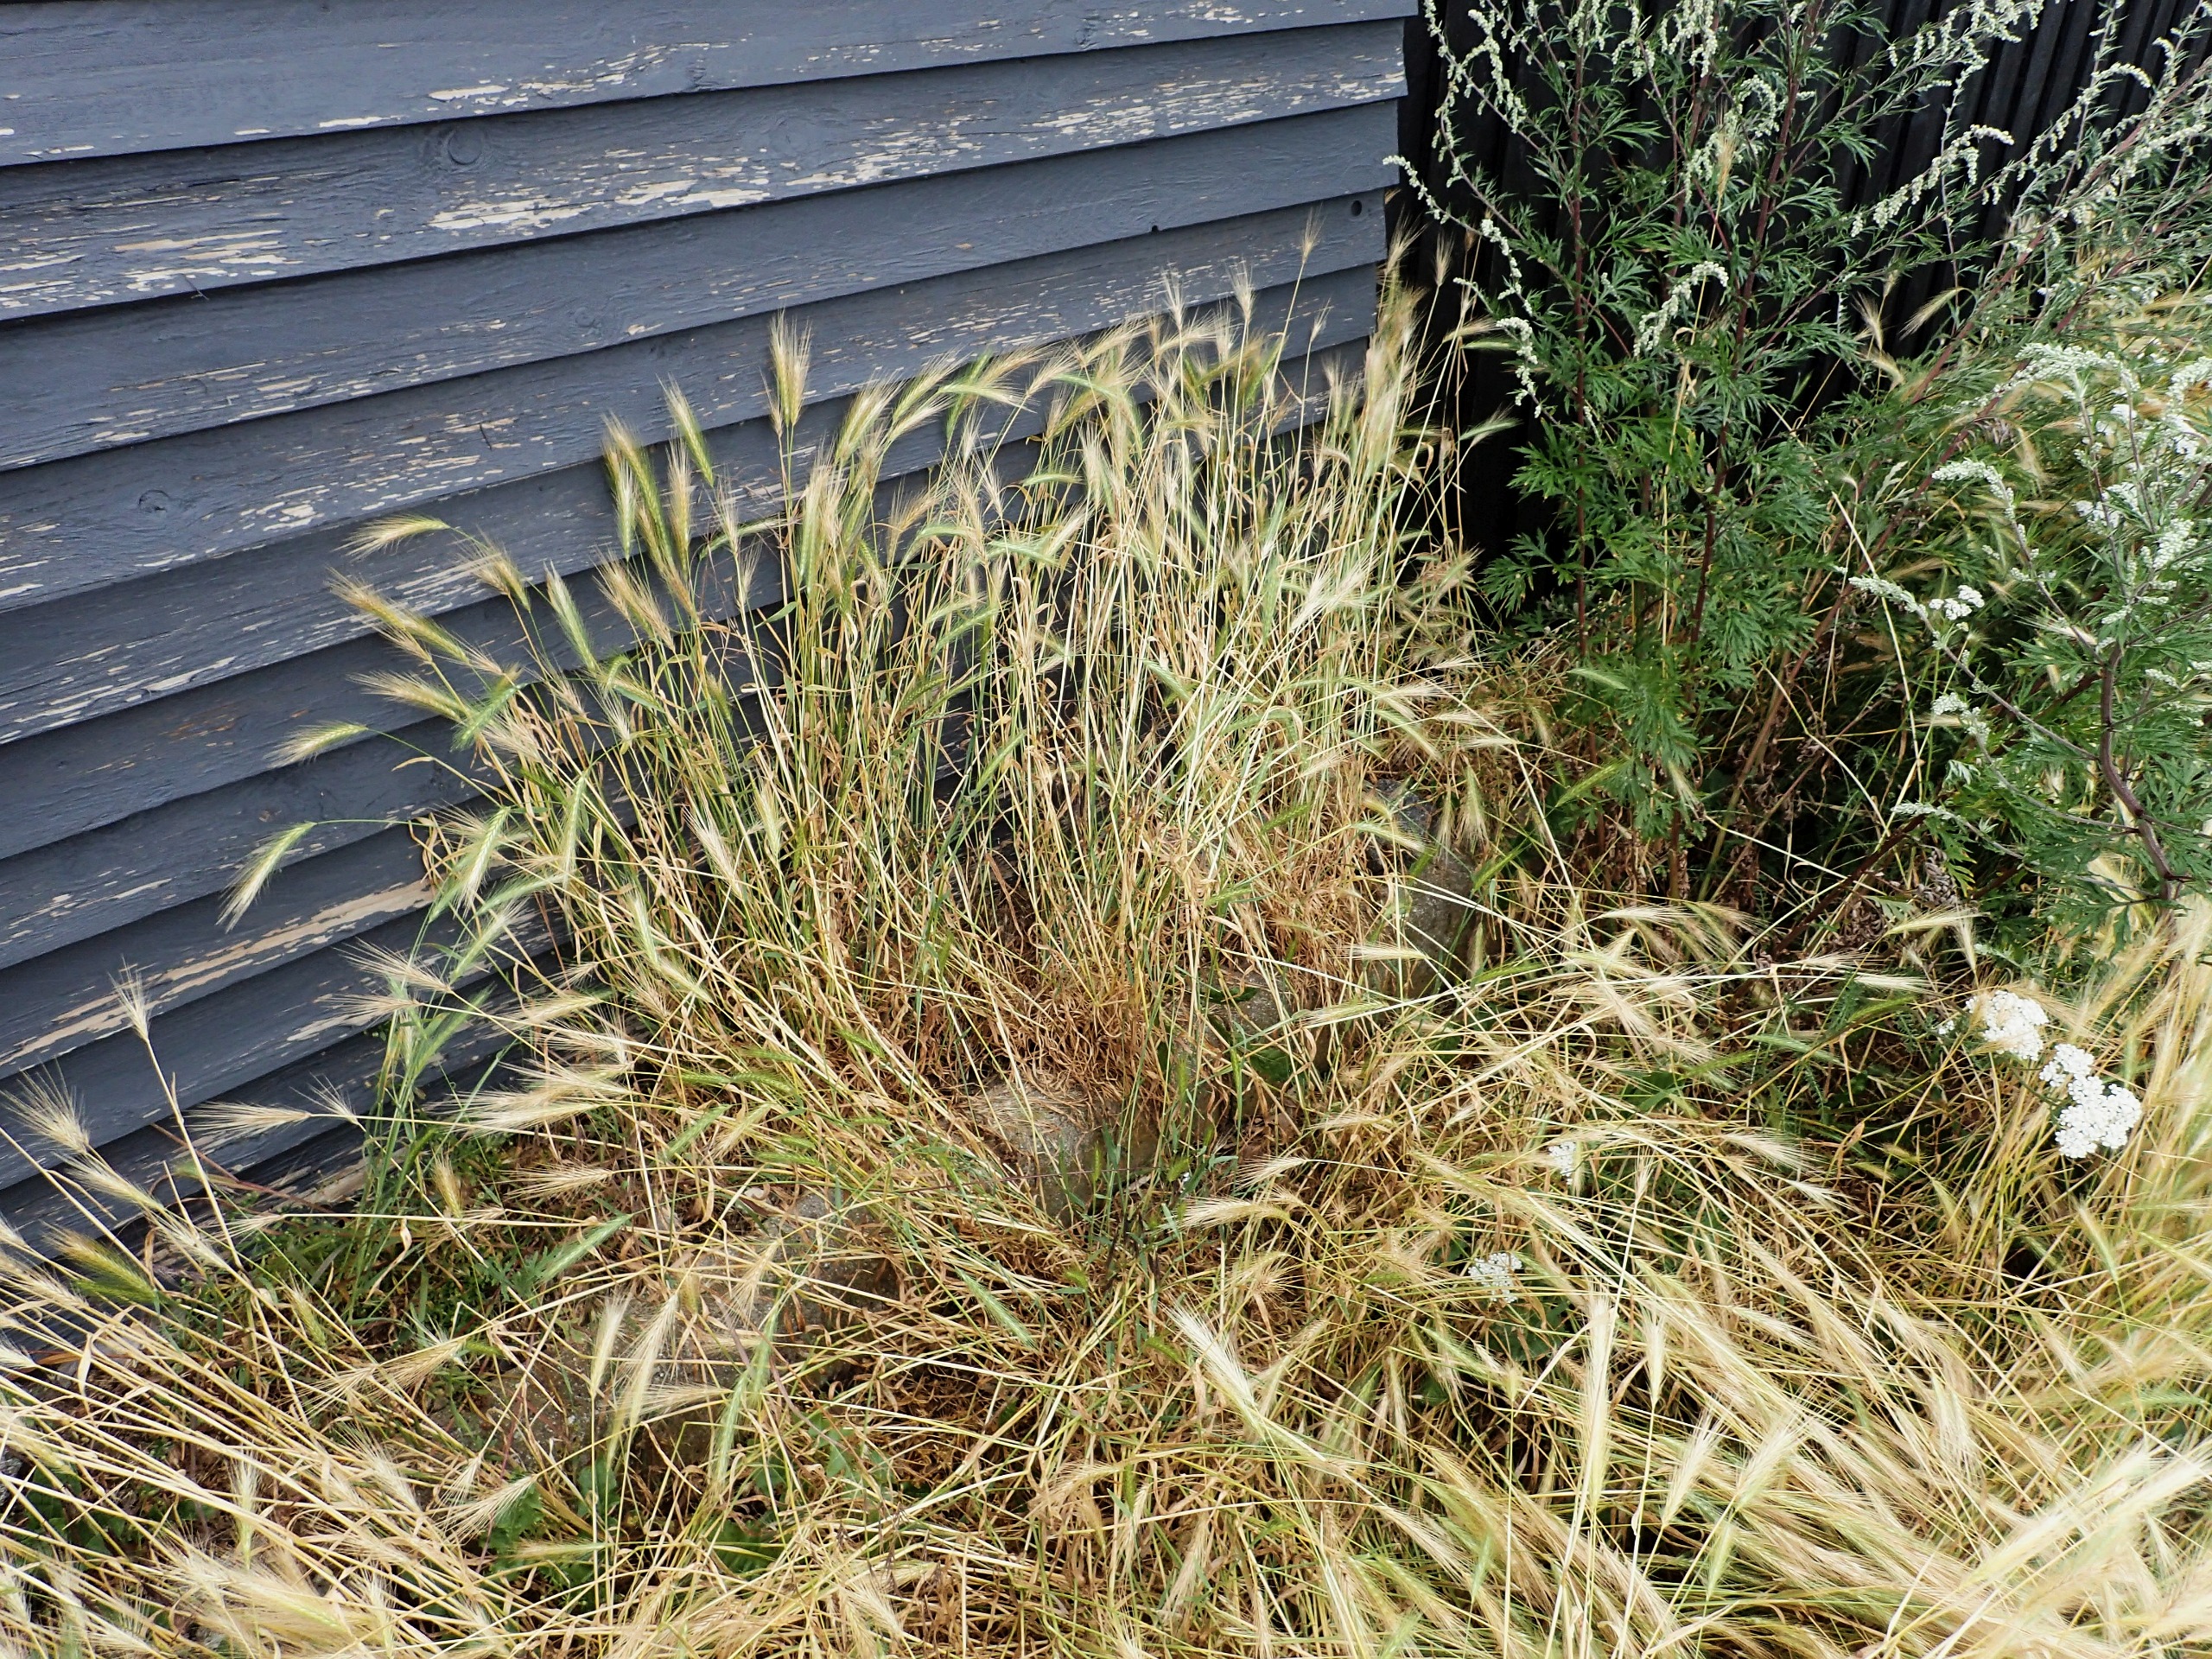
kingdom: Plantae
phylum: Tracheophyta
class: Liliopsida
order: Poales
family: Poaceae
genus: Hordeum
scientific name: Hordeum murinum
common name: Gold byg
